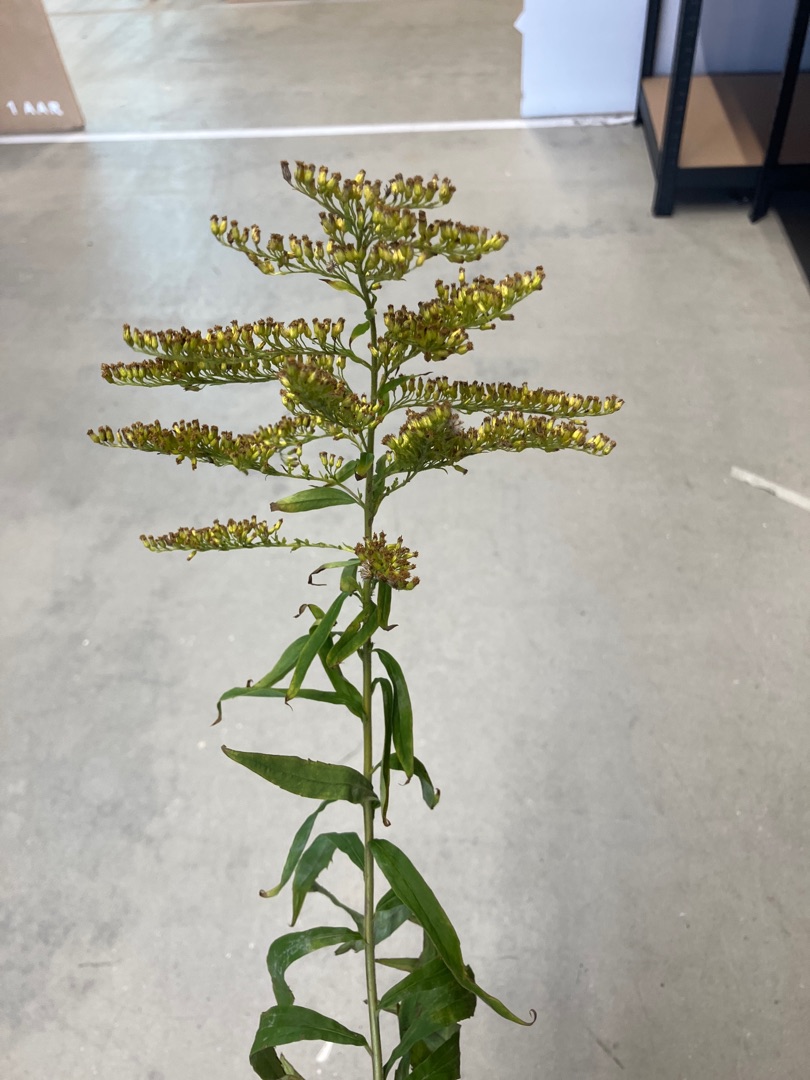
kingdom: Plantae
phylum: Tracheophyta
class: Magnoliopsida
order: Asterales
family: Asteraceae
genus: Solidago
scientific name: Solidago gigantea
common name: Sildig gyldenris
